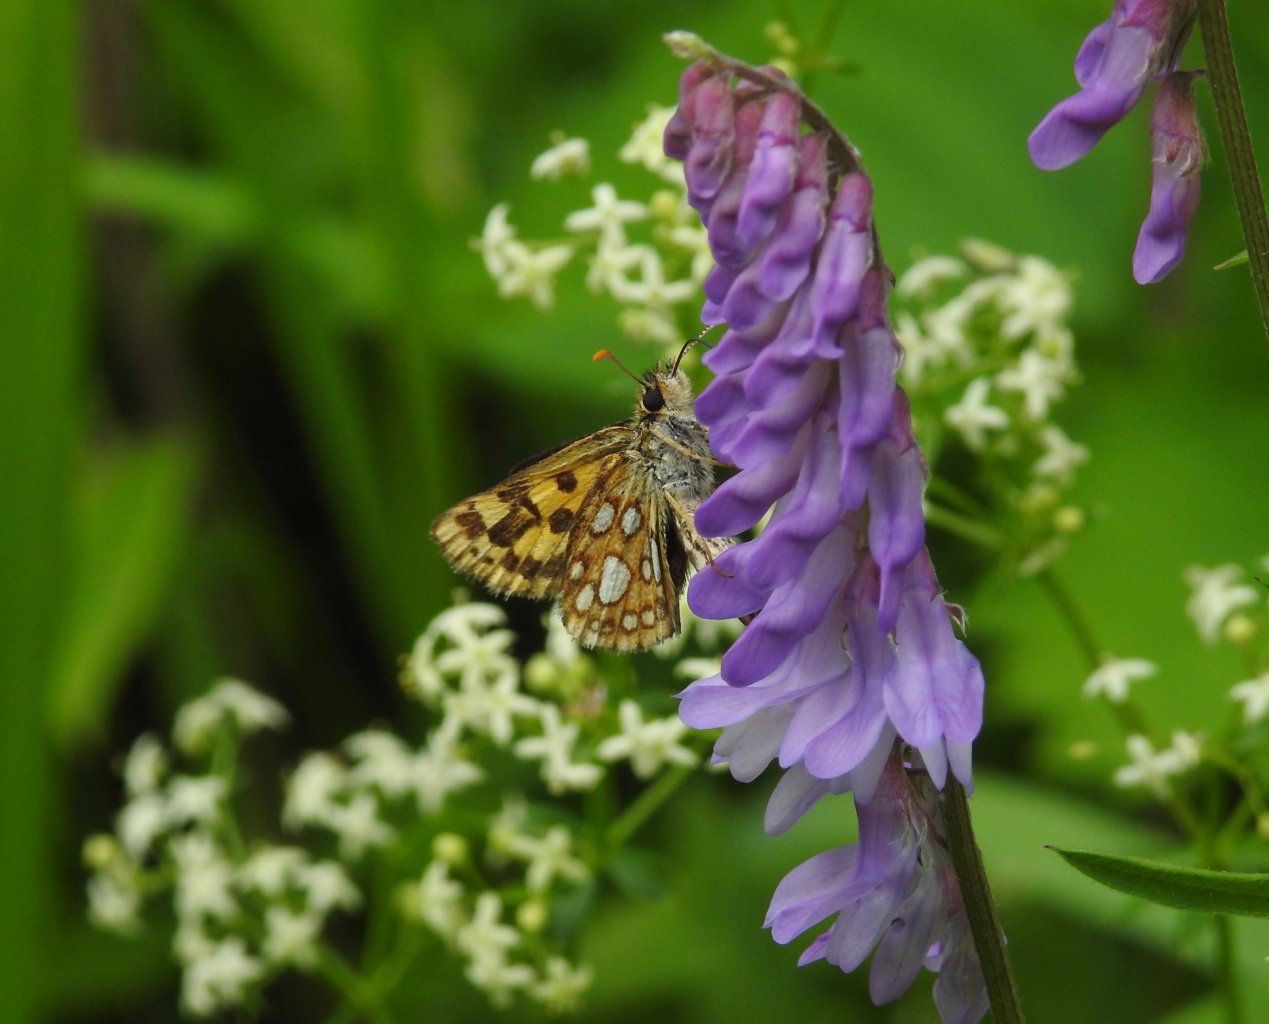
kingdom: Animalia
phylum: Arthropoda
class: Insecta
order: Lepidoptera
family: Hesperiidae
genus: Carterocephalus
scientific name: Carterocephalus palaemon
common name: Chequered Skipper
